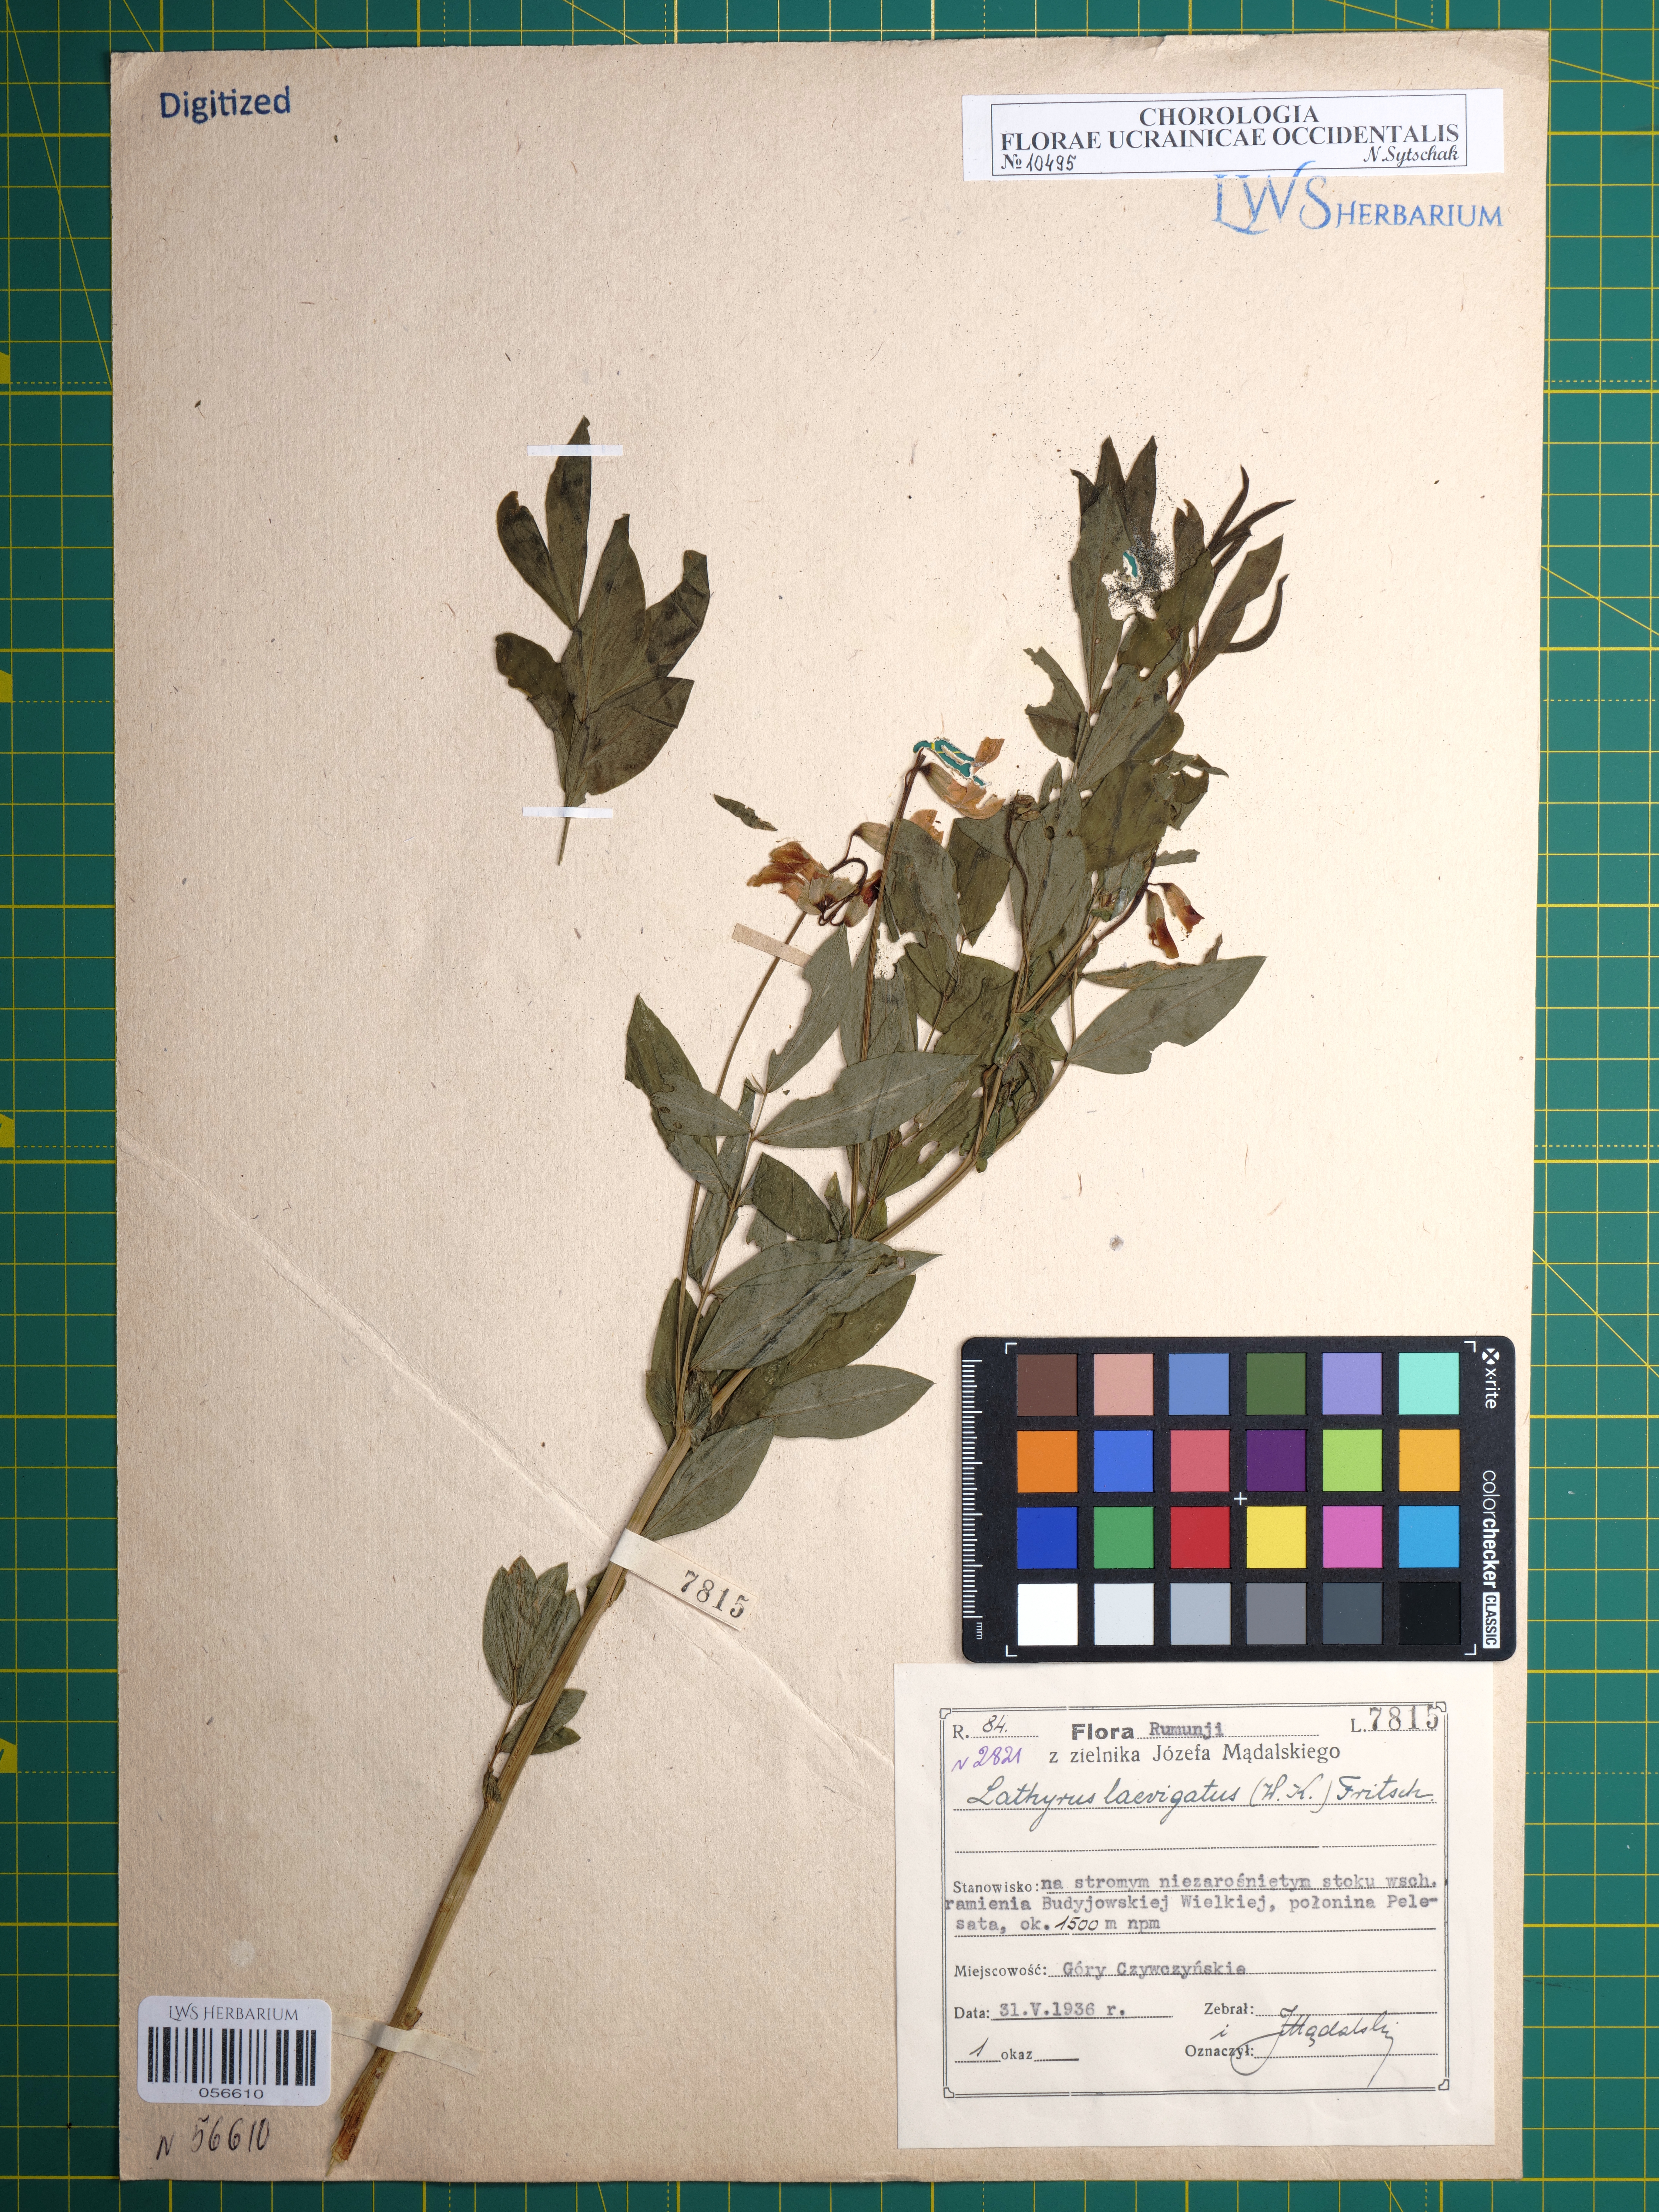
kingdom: Plantae
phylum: Tracheophyta
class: Magnoliopsida
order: Fabales
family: Fabaceae
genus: Lathyrus
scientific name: Lathyrus laevigatus
